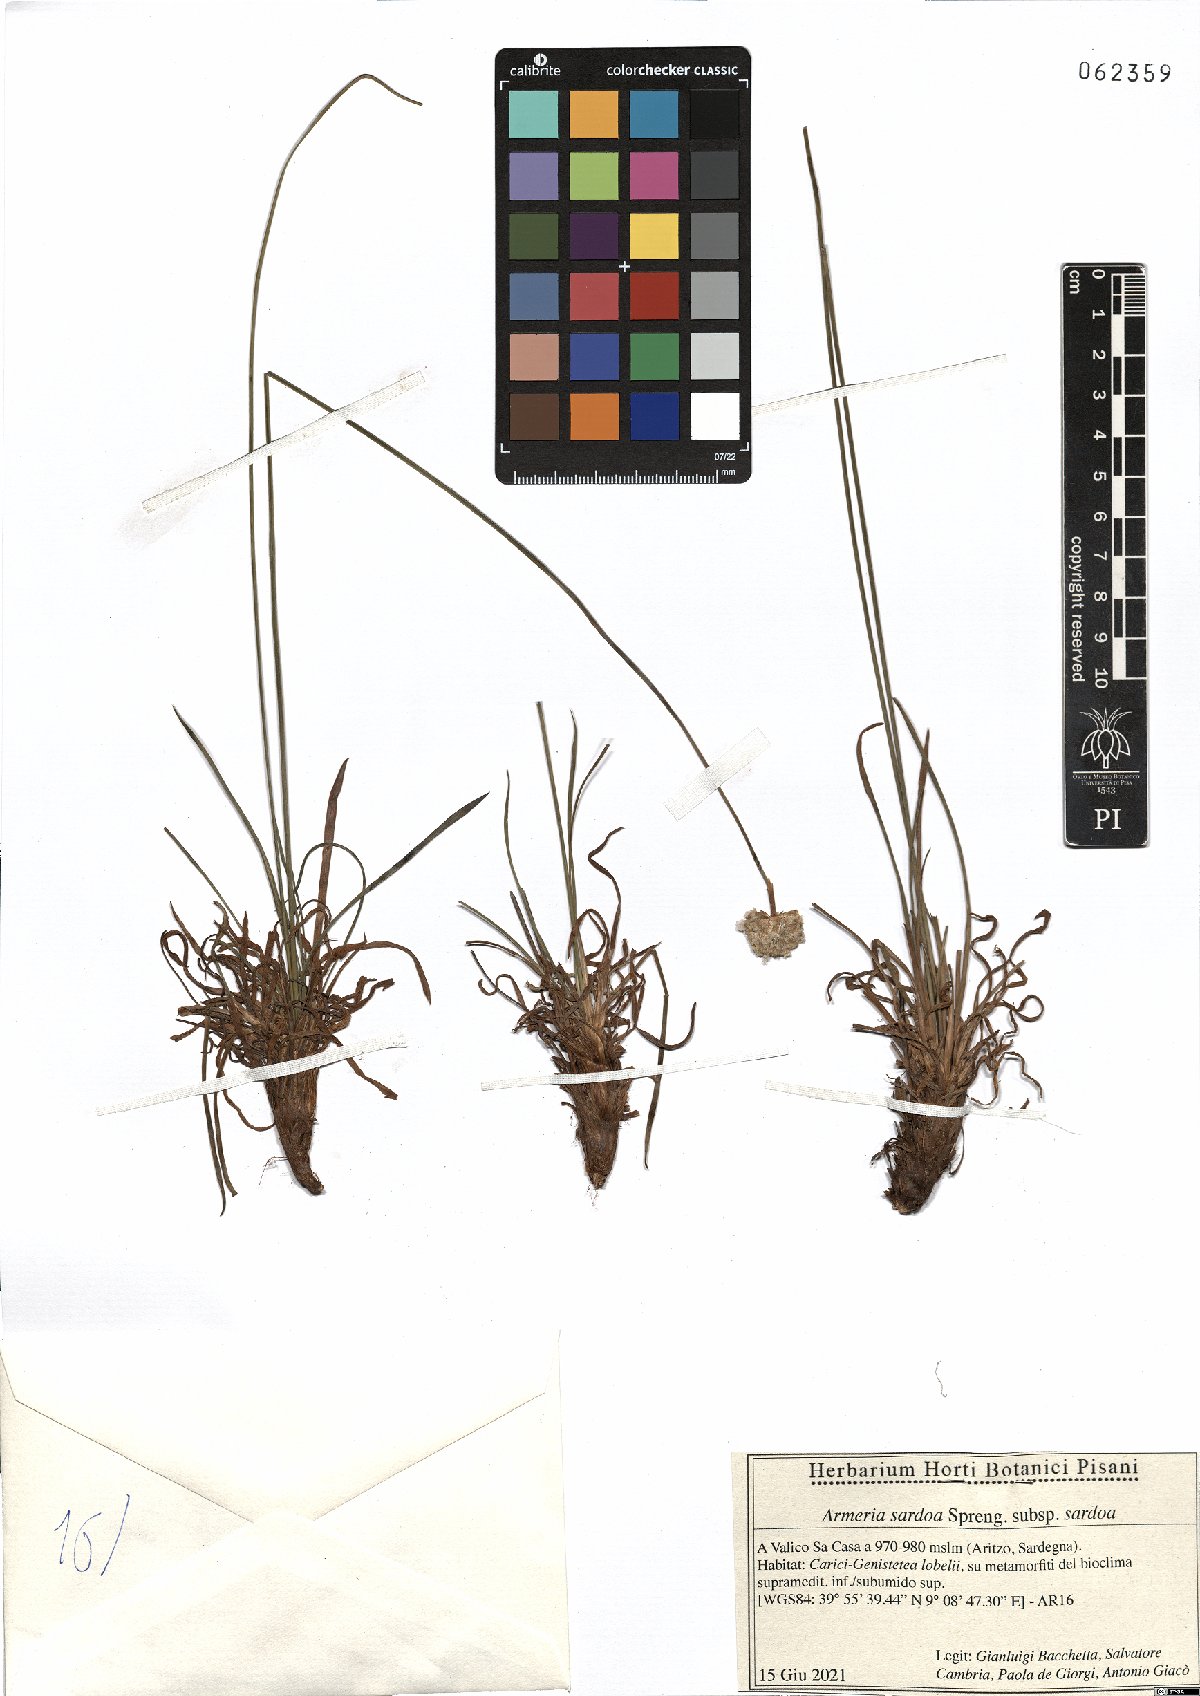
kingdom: Plantae
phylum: Tracheophyta
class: Magnoliopsida
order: Caryophyllales
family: Plumbaginaceae
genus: Armeria
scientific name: Armeria sardoa
